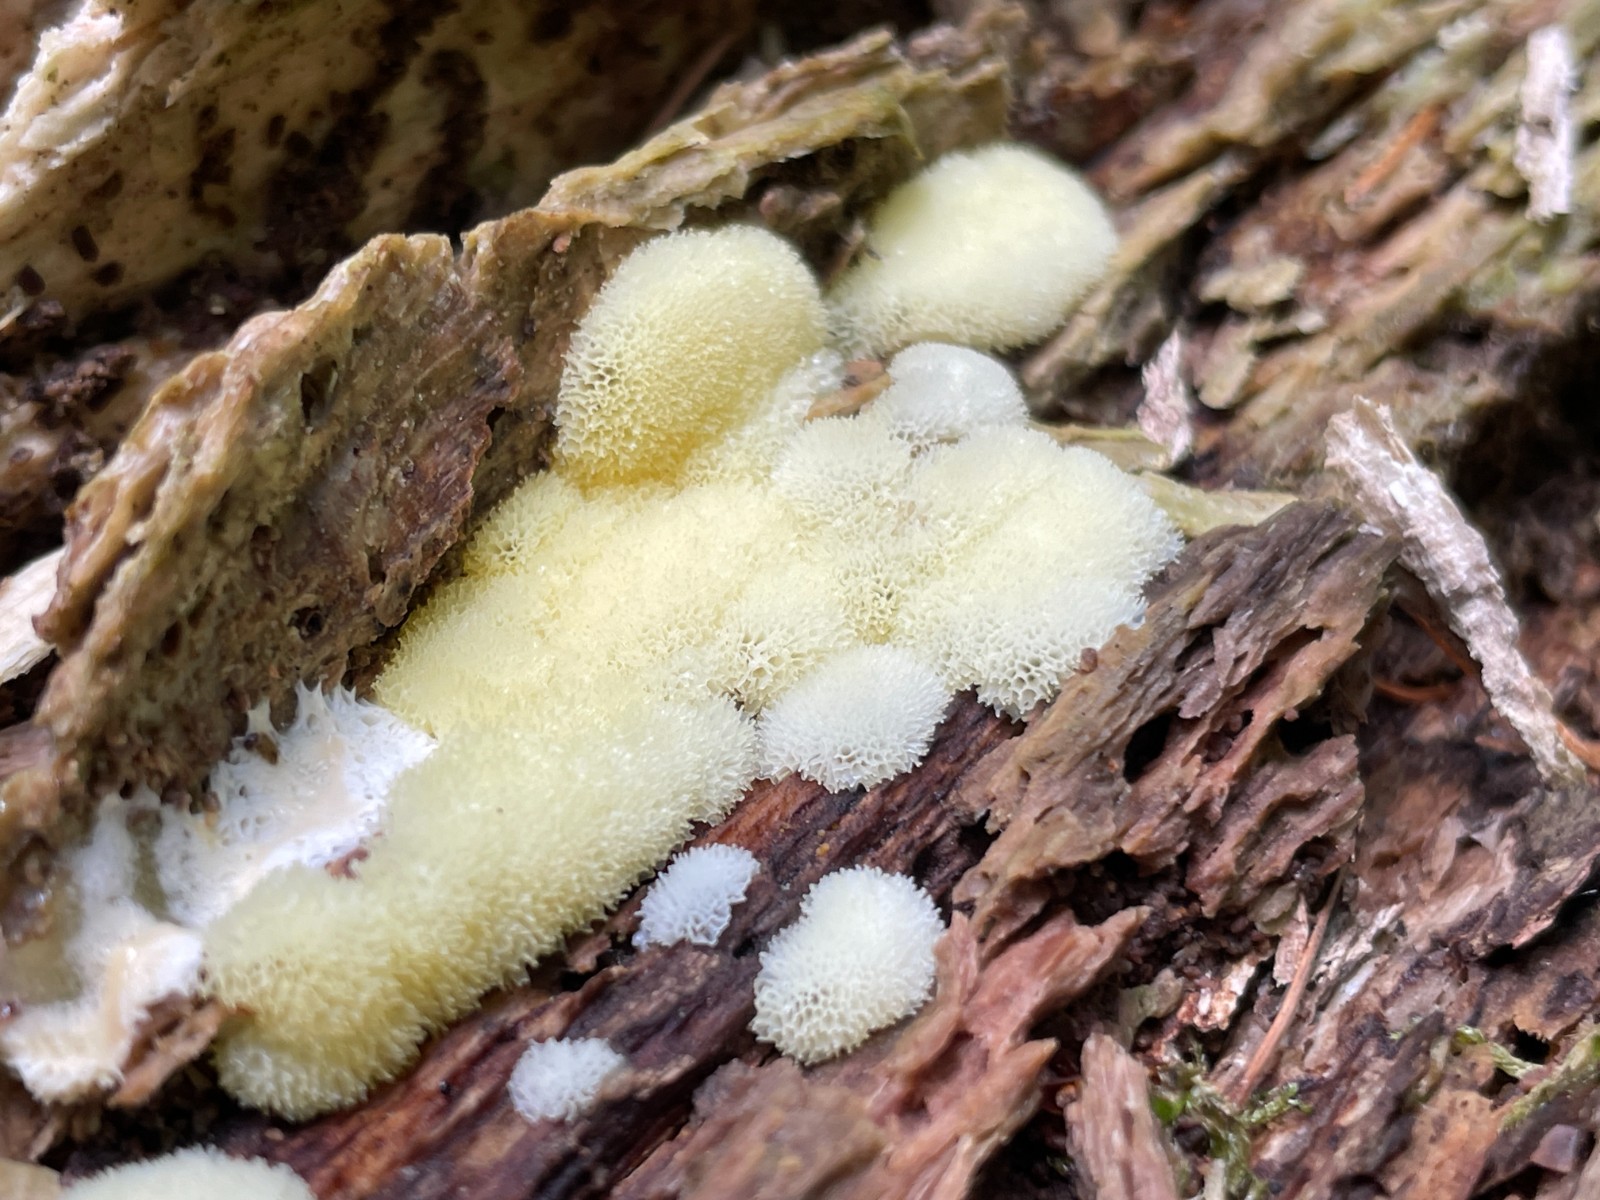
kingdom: Protozoa
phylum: Mycetozoa
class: Protosteliomycetes
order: Ceratiomyxales
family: Ceratiomyxaceae
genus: Ceratiomyxa
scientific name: Ceratiomyxa fruticulosa
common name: Honeycomb coral slime mold
